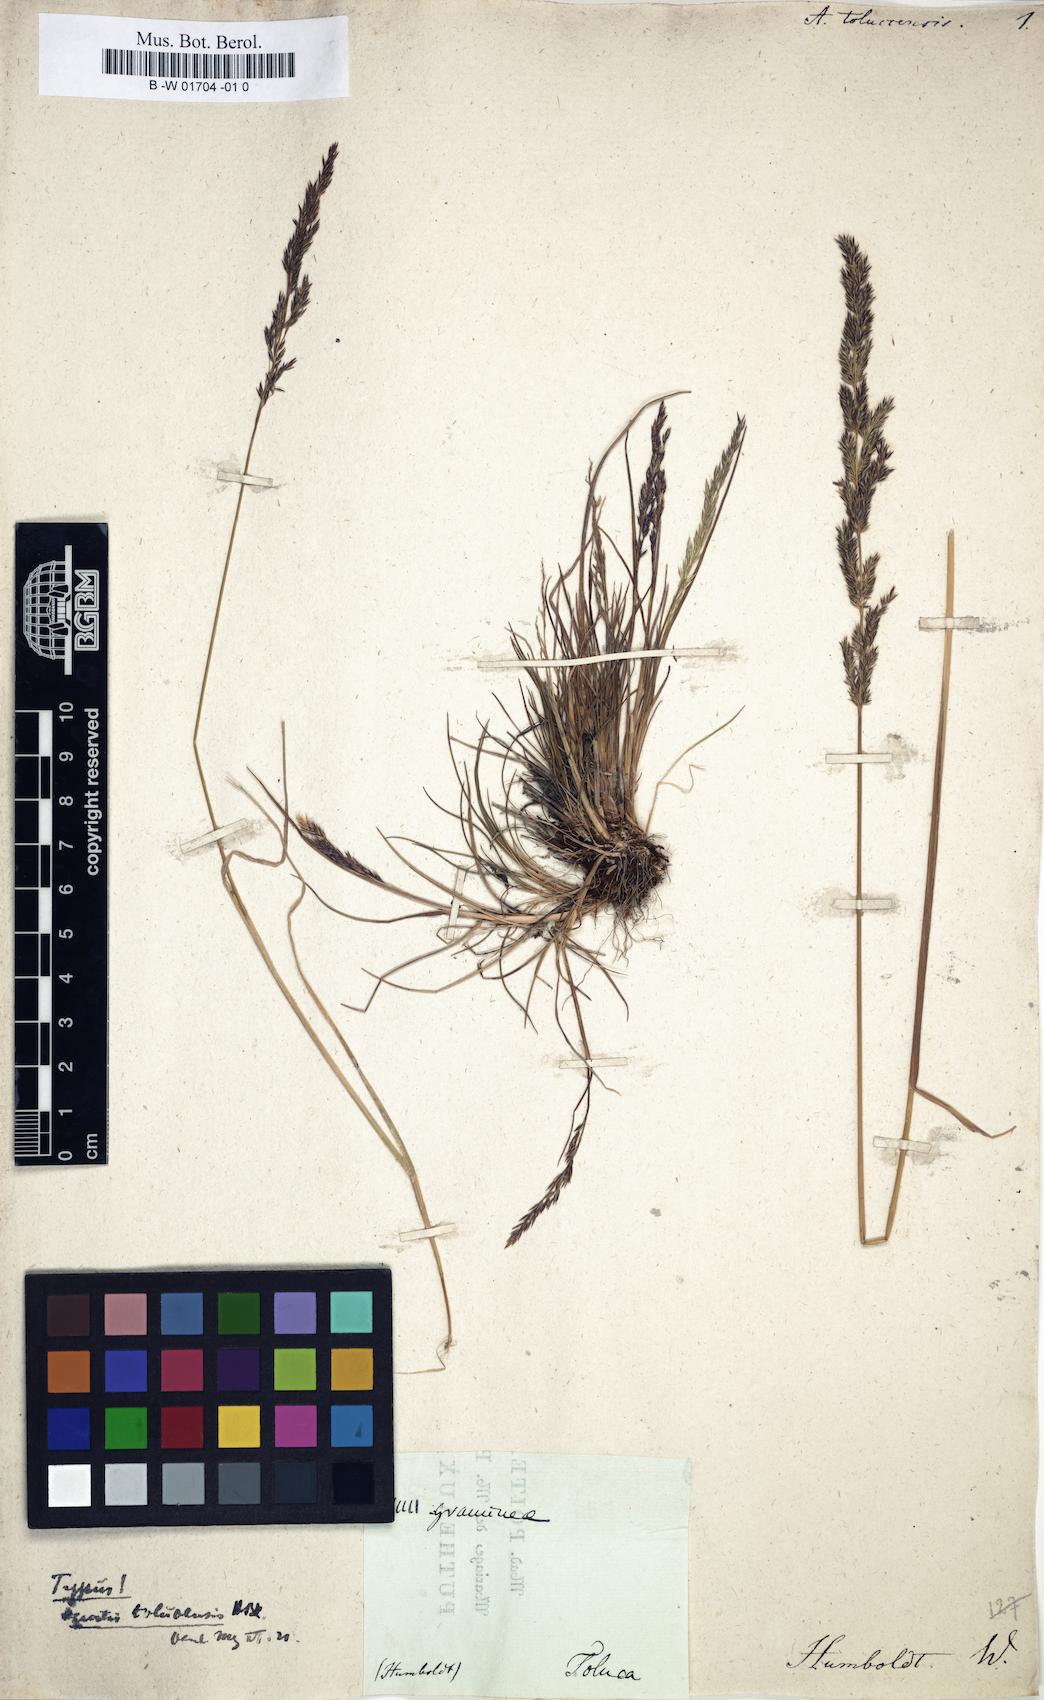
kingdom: Plantae
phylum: Tracheophyta
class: Liliopsida
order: Poales
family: Poaceae
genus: Agrostis
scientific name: Agrostis tolucensis
